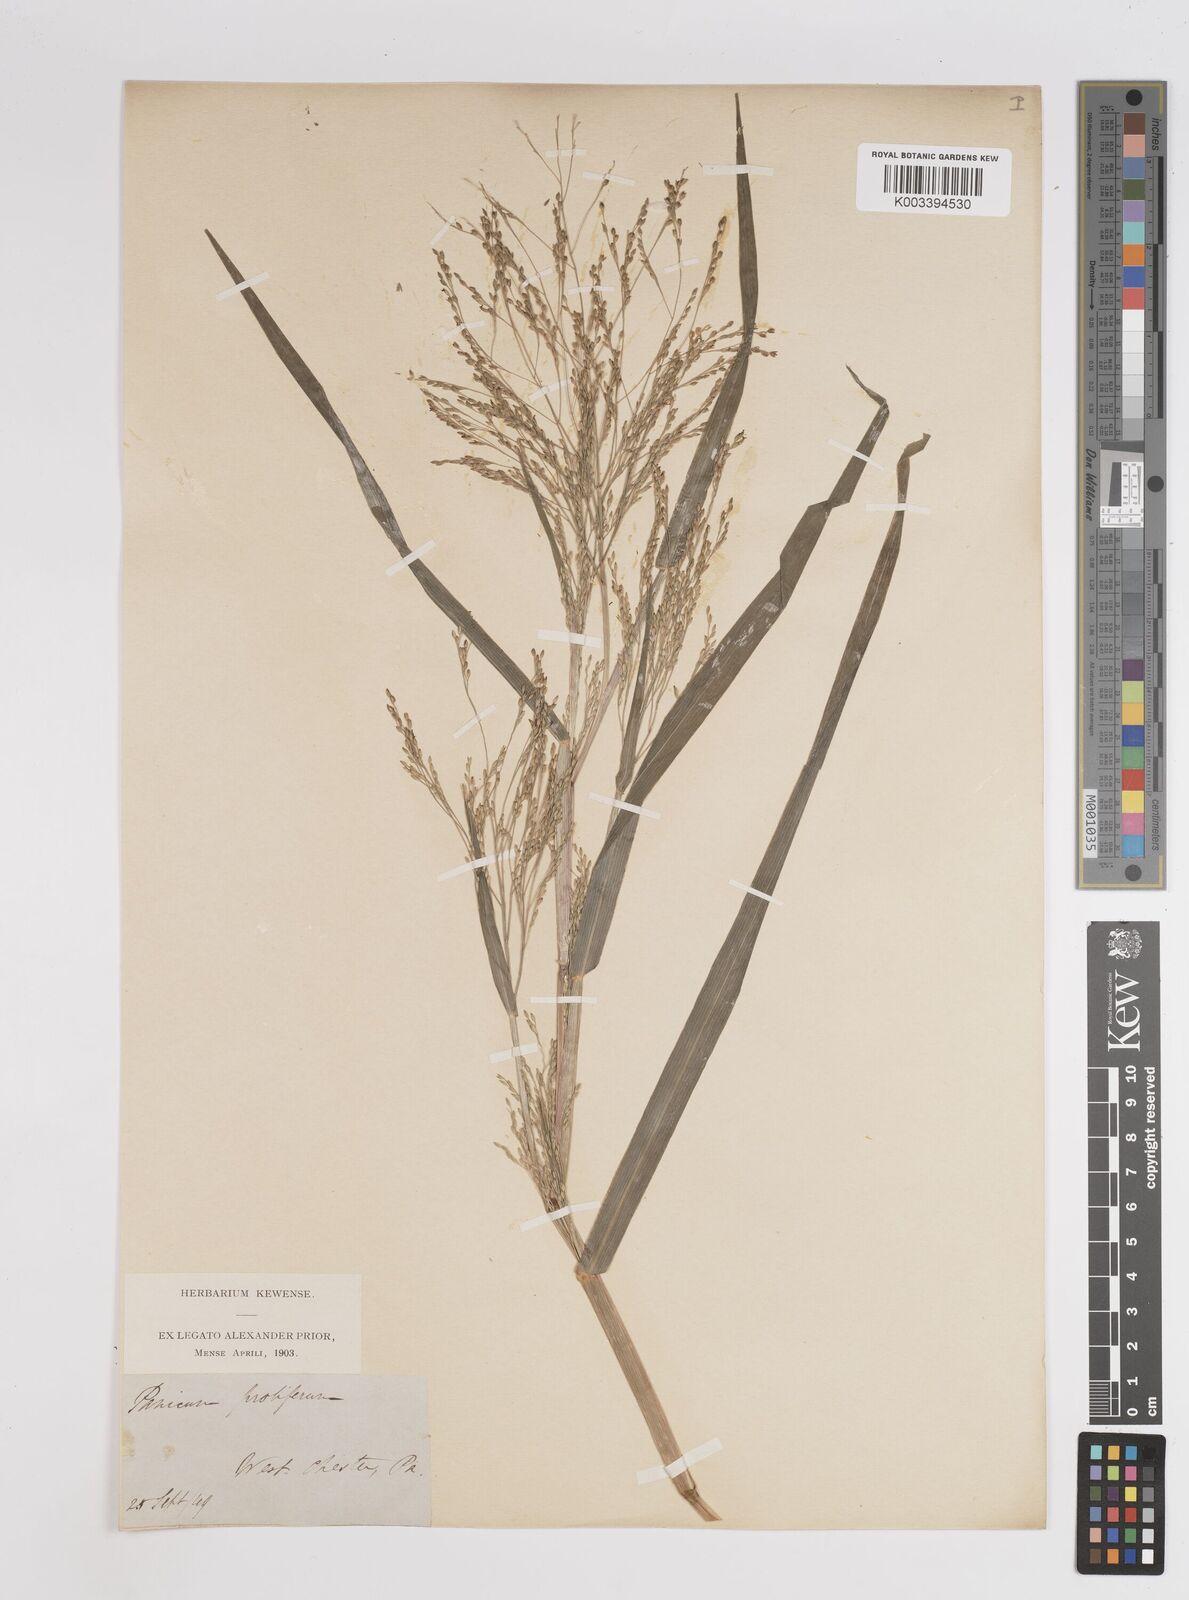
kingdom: Plantae
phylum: Tracheophyta
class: Liliopsida
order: Poales
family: Poaceae
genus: Panicum
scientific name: Panicum dichotomiflorum
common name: Autumn millet
